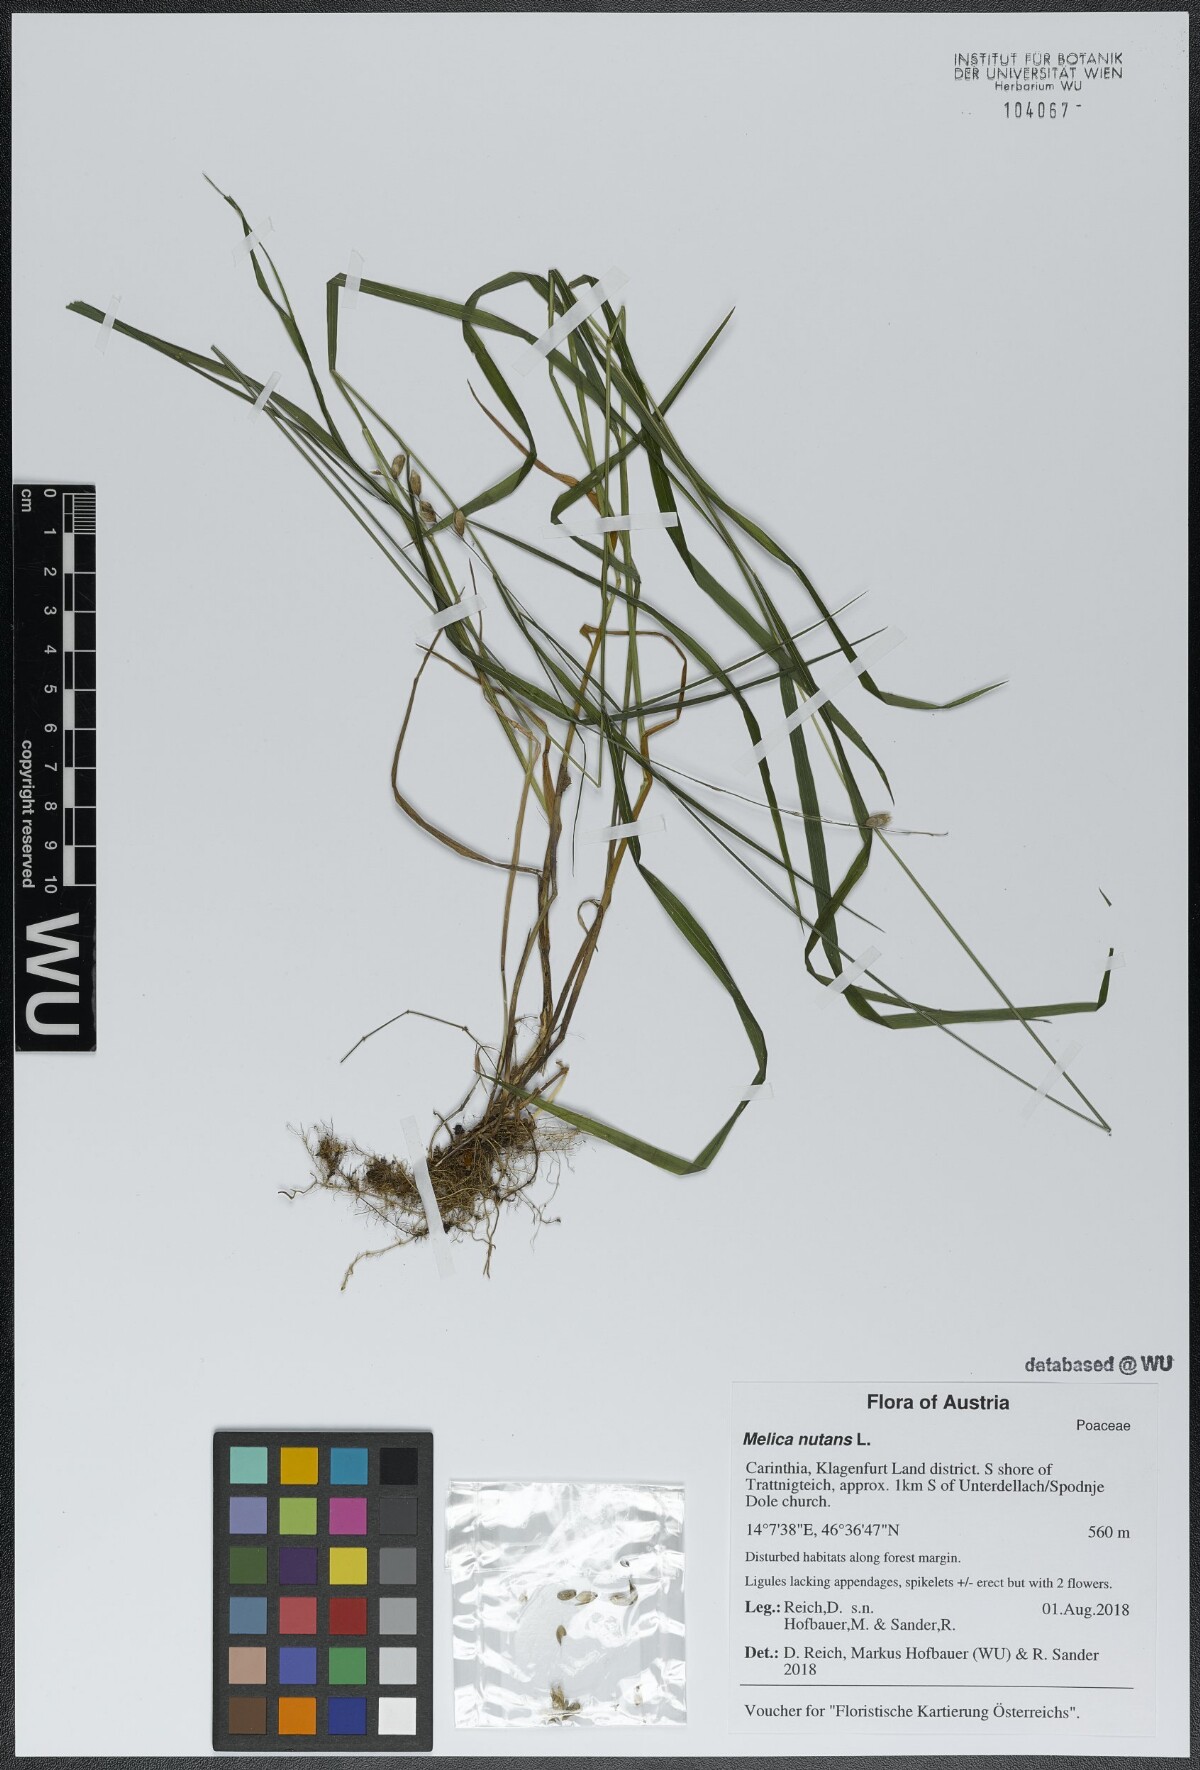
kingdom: Plantae
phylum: Tracheophyta
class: Liliopsida
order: Poales
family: Poaceae
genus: Melica
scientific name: Melica nutans
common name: Mountain melick
